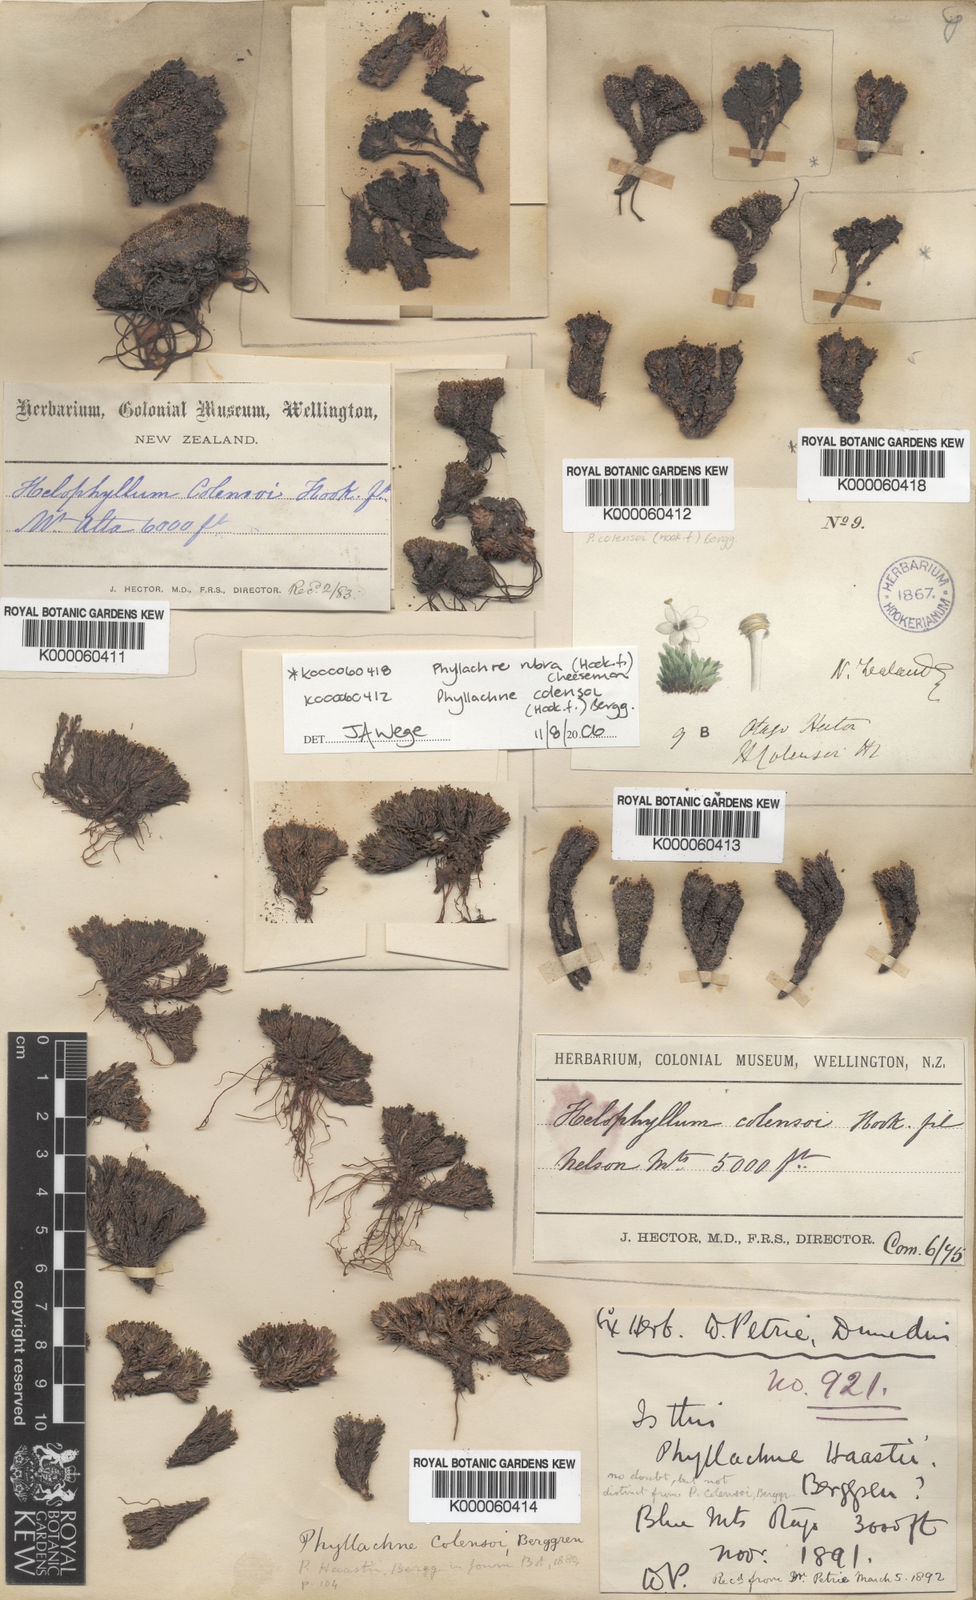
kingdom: Plantae
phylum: Tracheophyta
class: Magnoliopsida
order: Asterales
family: Stylidiaceae
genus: Phyllachne
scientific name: Phyllachne colensoi
